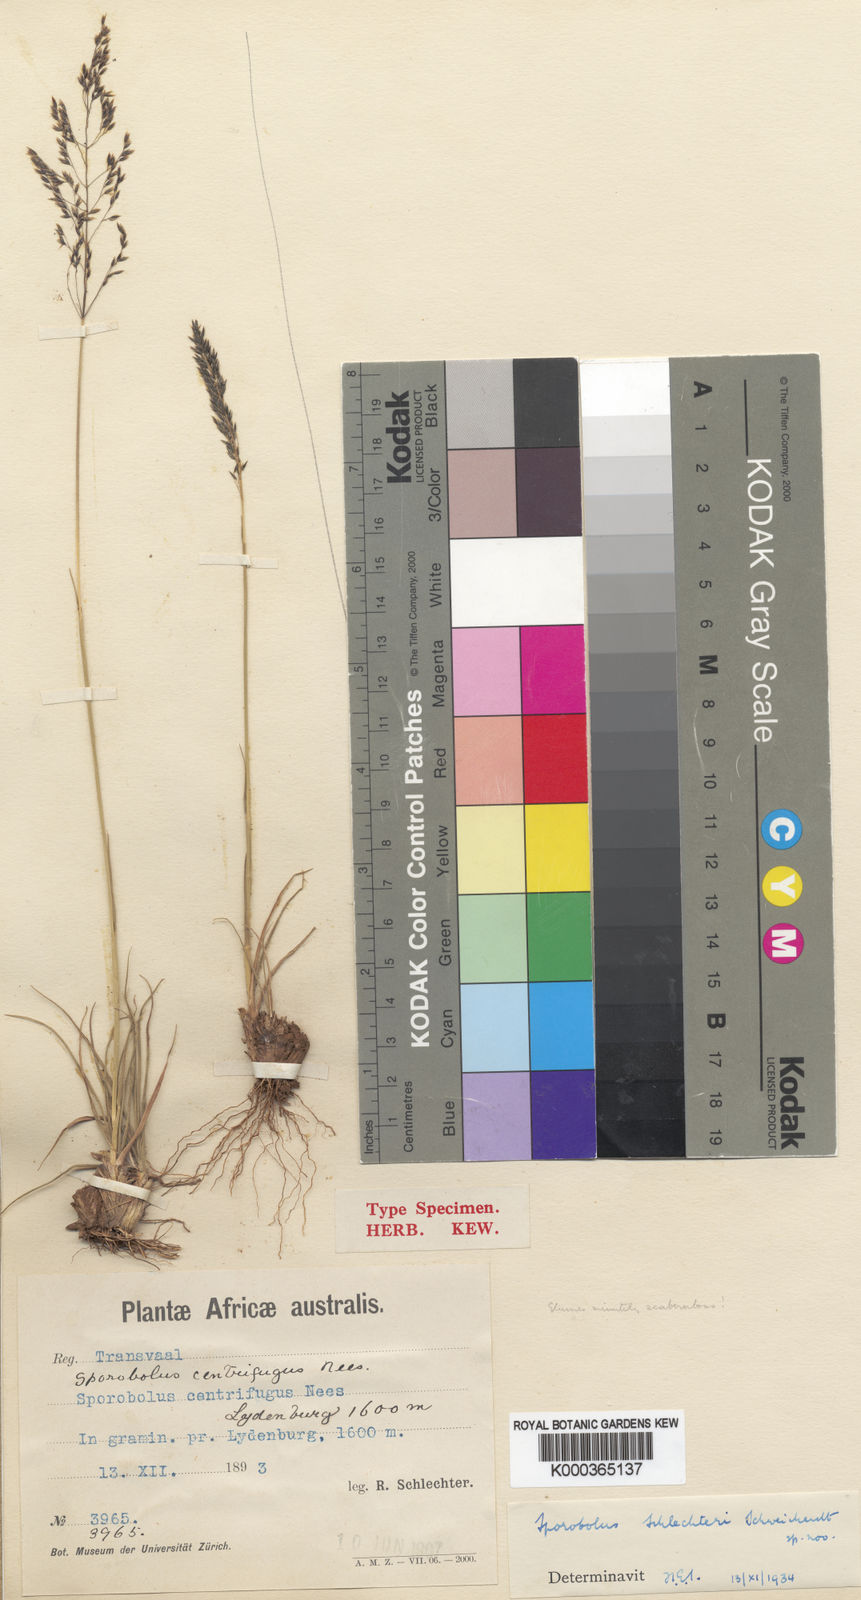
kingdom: Plantae
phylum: Tracheophyta
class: Liliopsida
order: Poales
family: Poaceae
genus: Sporobolus
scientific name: Sporobolus centrifugus
